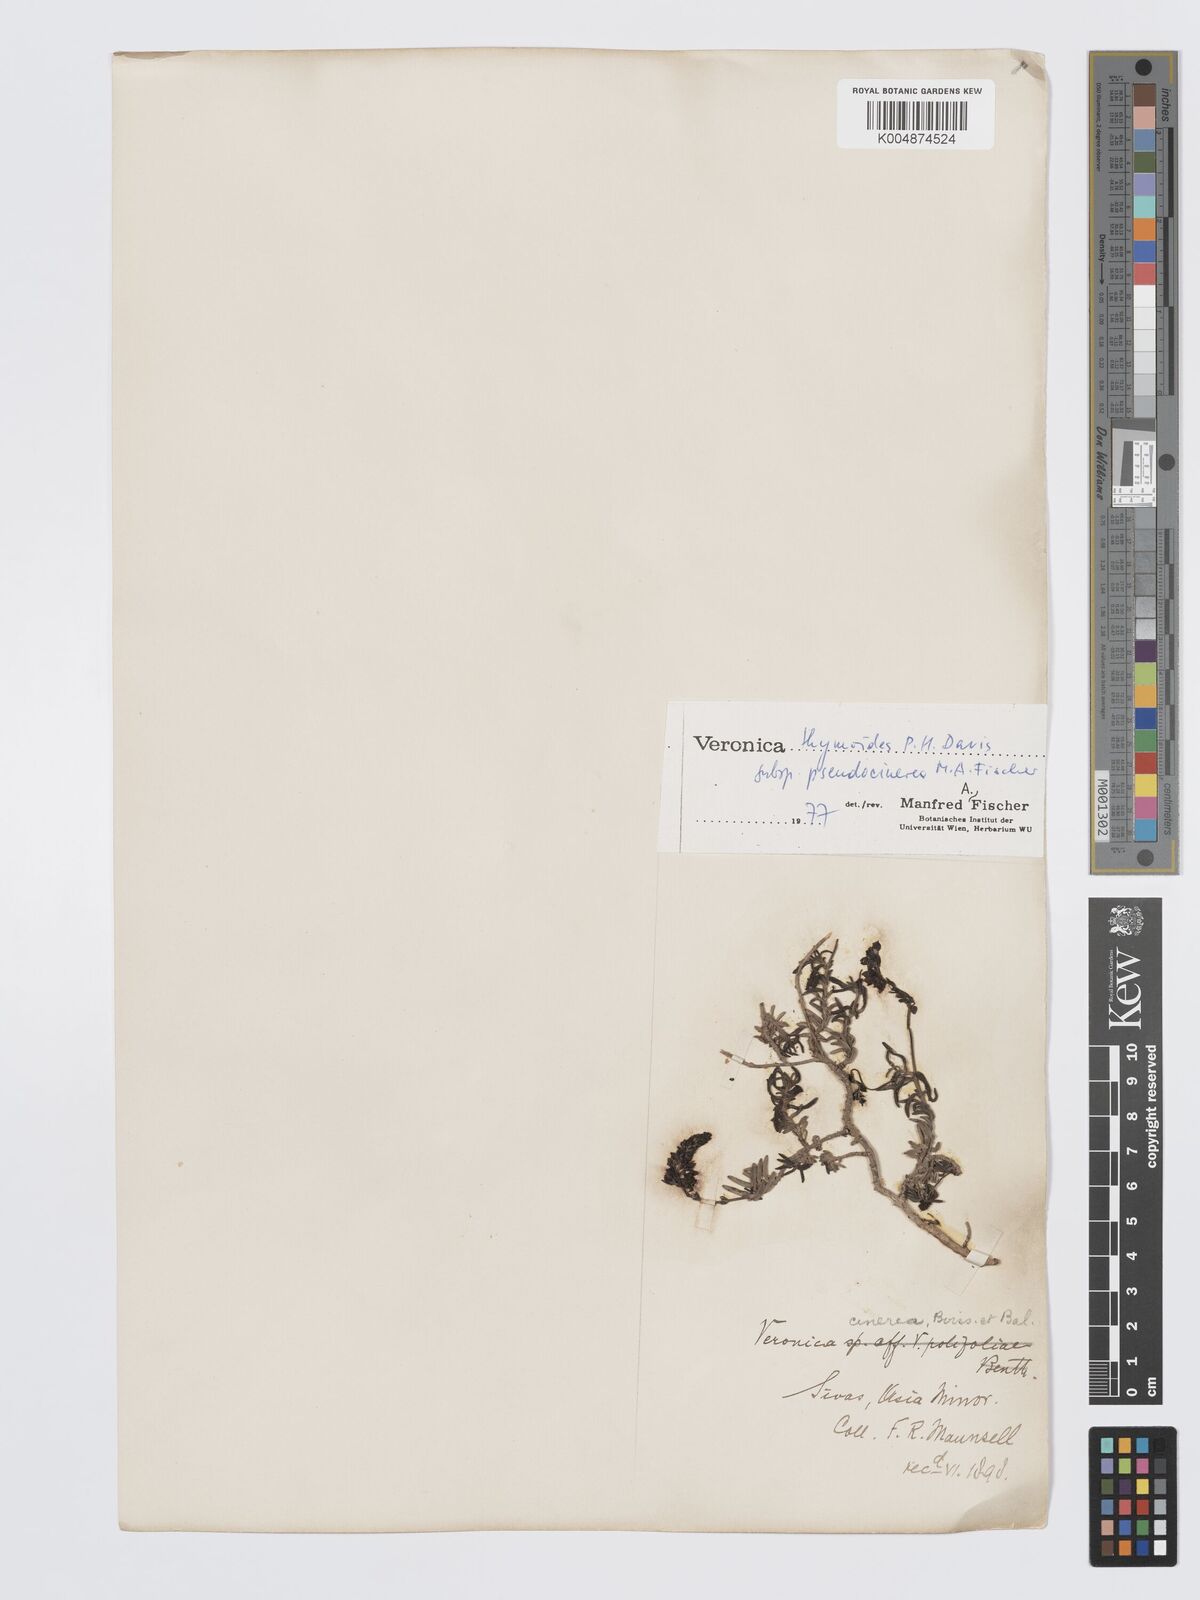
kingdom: Plantae
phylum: Tracheophyta
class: Magnoliopsida
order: Lamiales
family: Plantaginaceae
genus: Veronica
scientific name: Veronica thymoides
